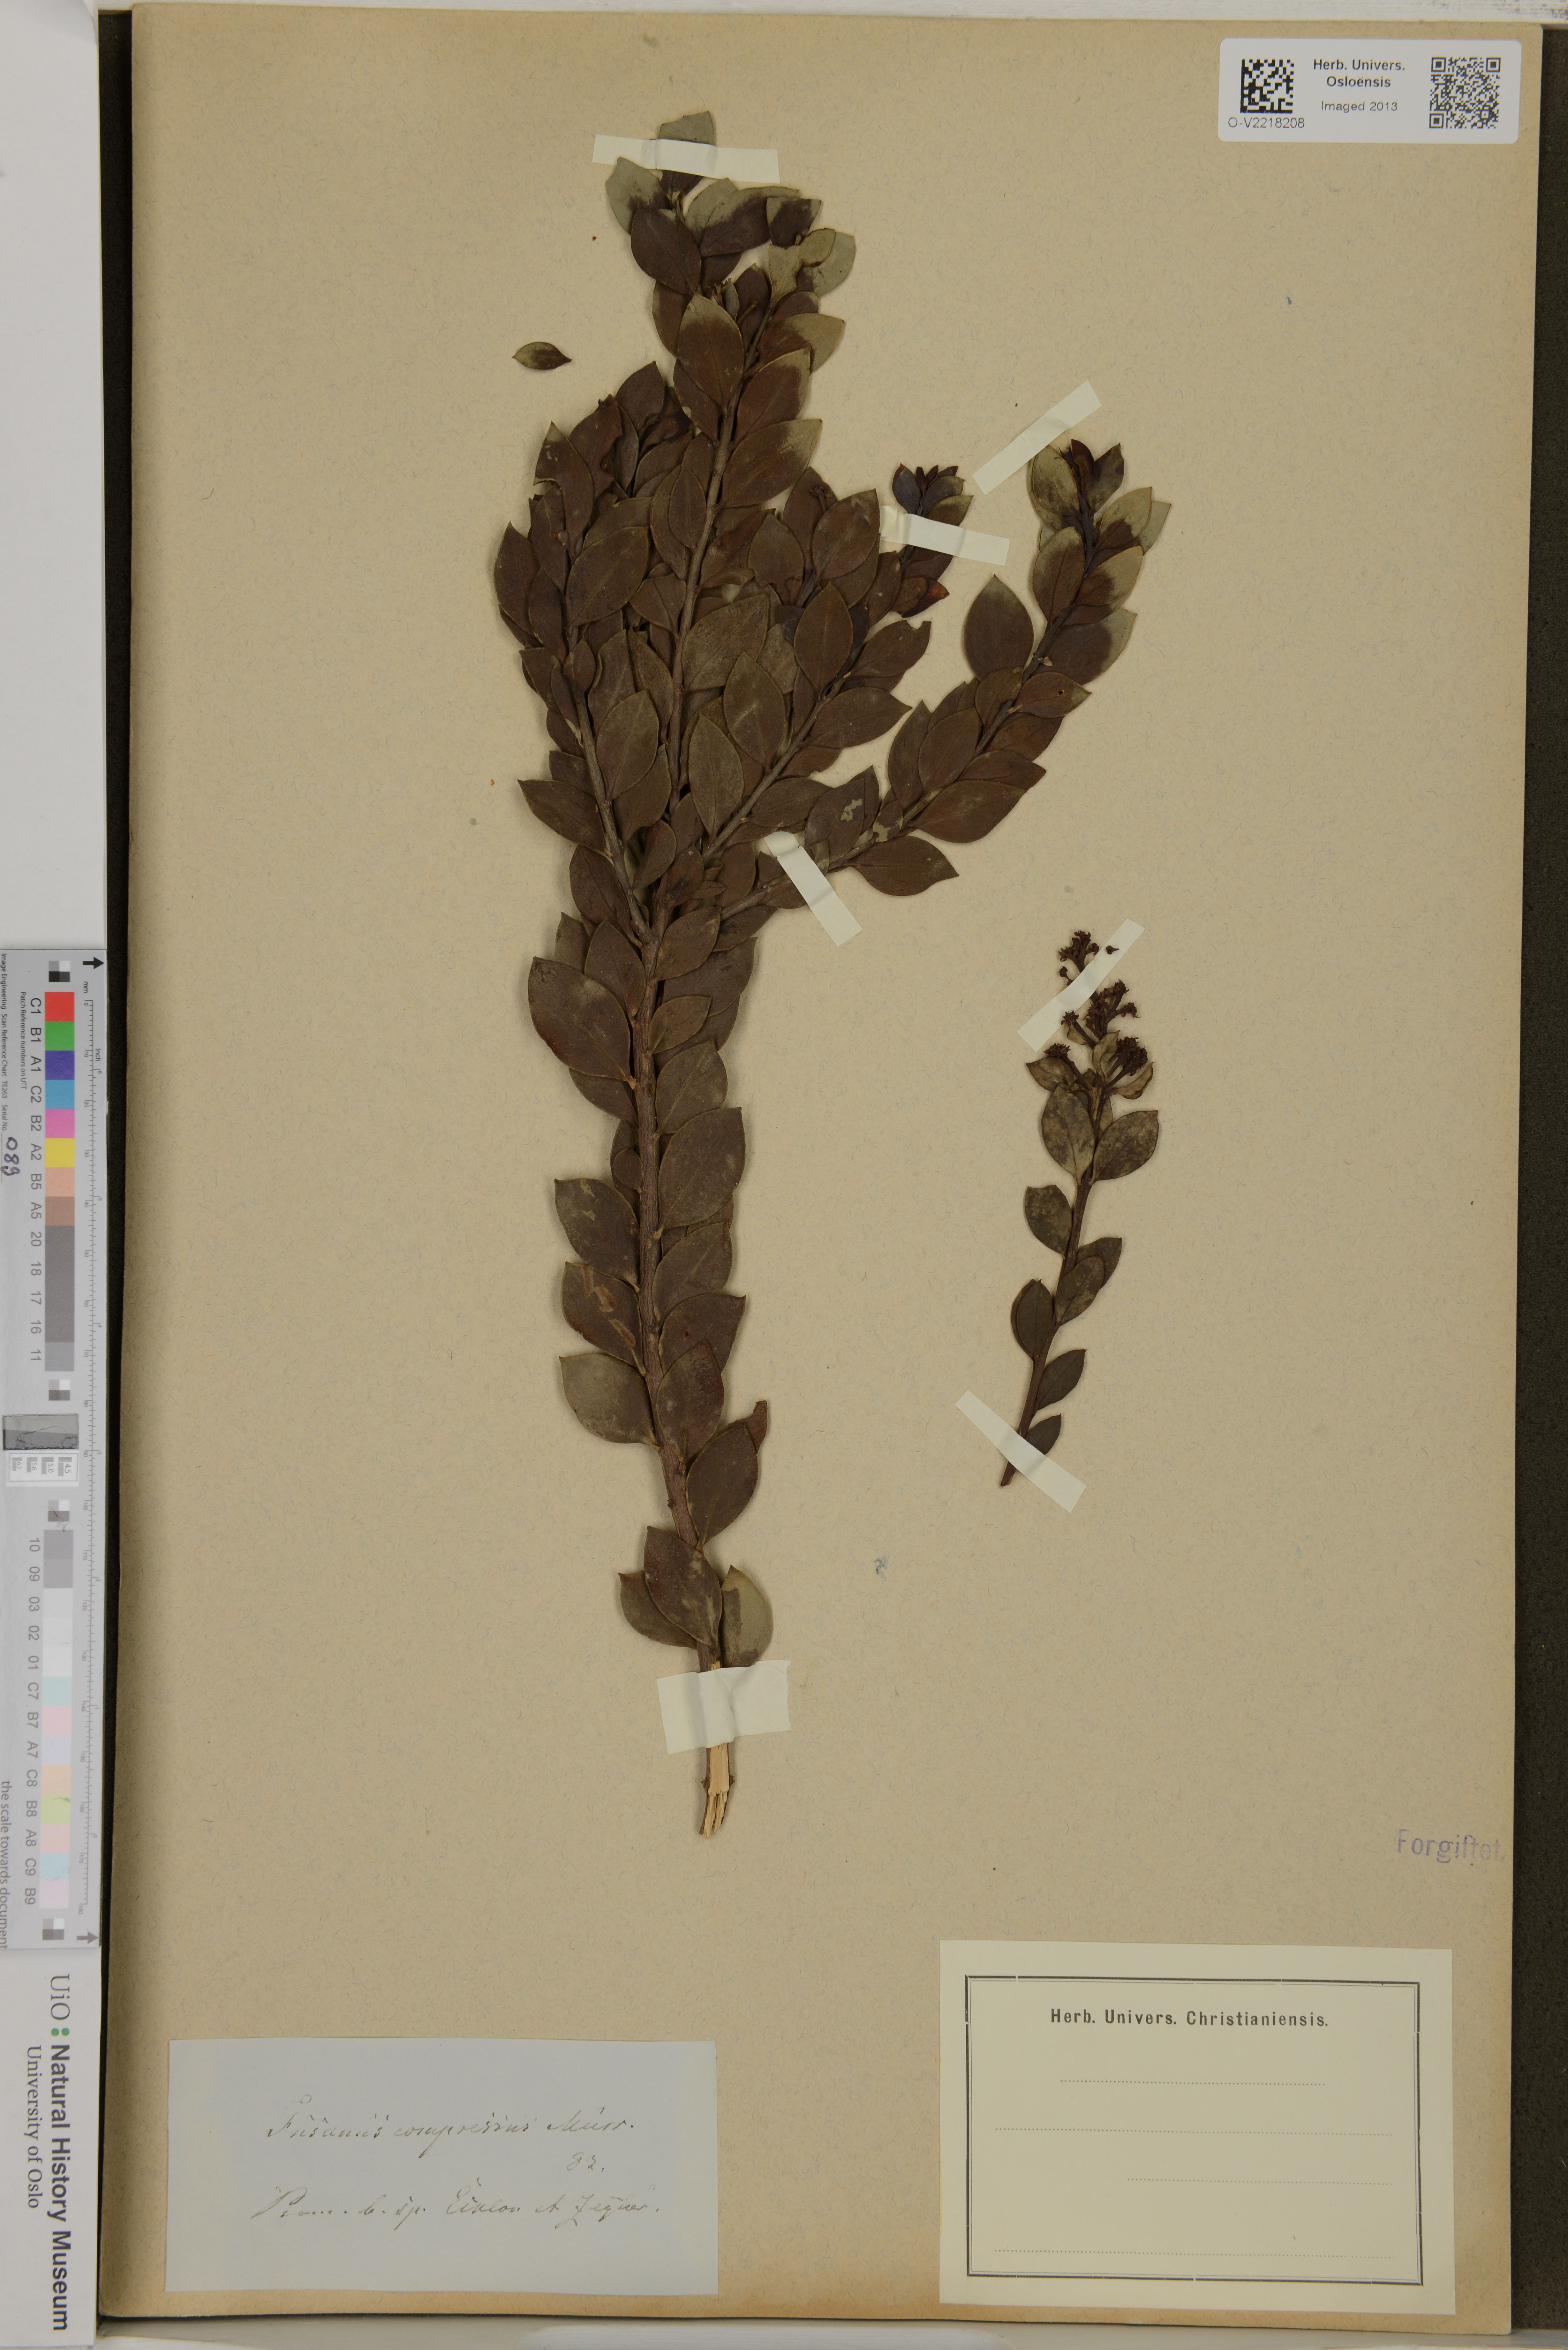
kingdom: Plantae
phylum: Tracheophyta
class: Magnoliopsida
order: Santalales
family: Thesiaceae
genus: Thesium
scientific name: Thesium compressum
